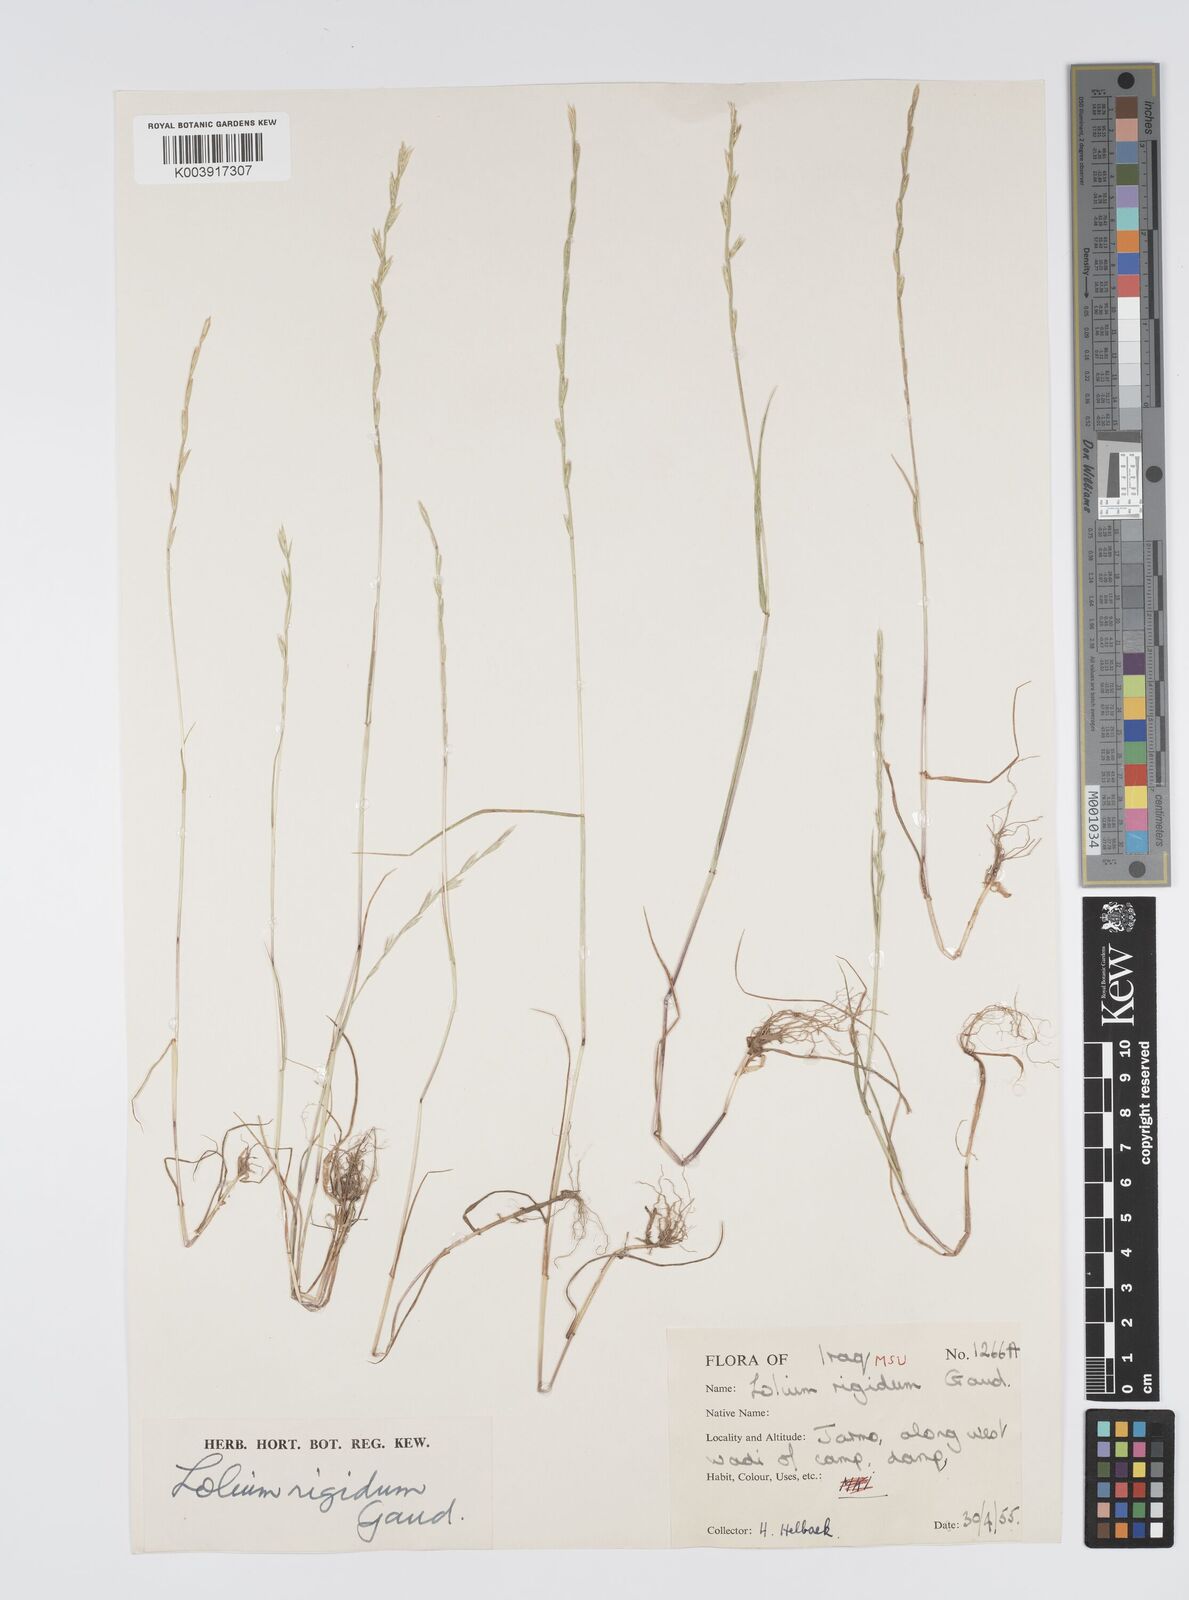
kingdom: Plantae
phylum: Tracheophyta
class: Liliopsida
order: Poales
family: Poaceae
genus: Lolium
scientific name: Lolium rigidum
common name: Wimmera ryegrass
